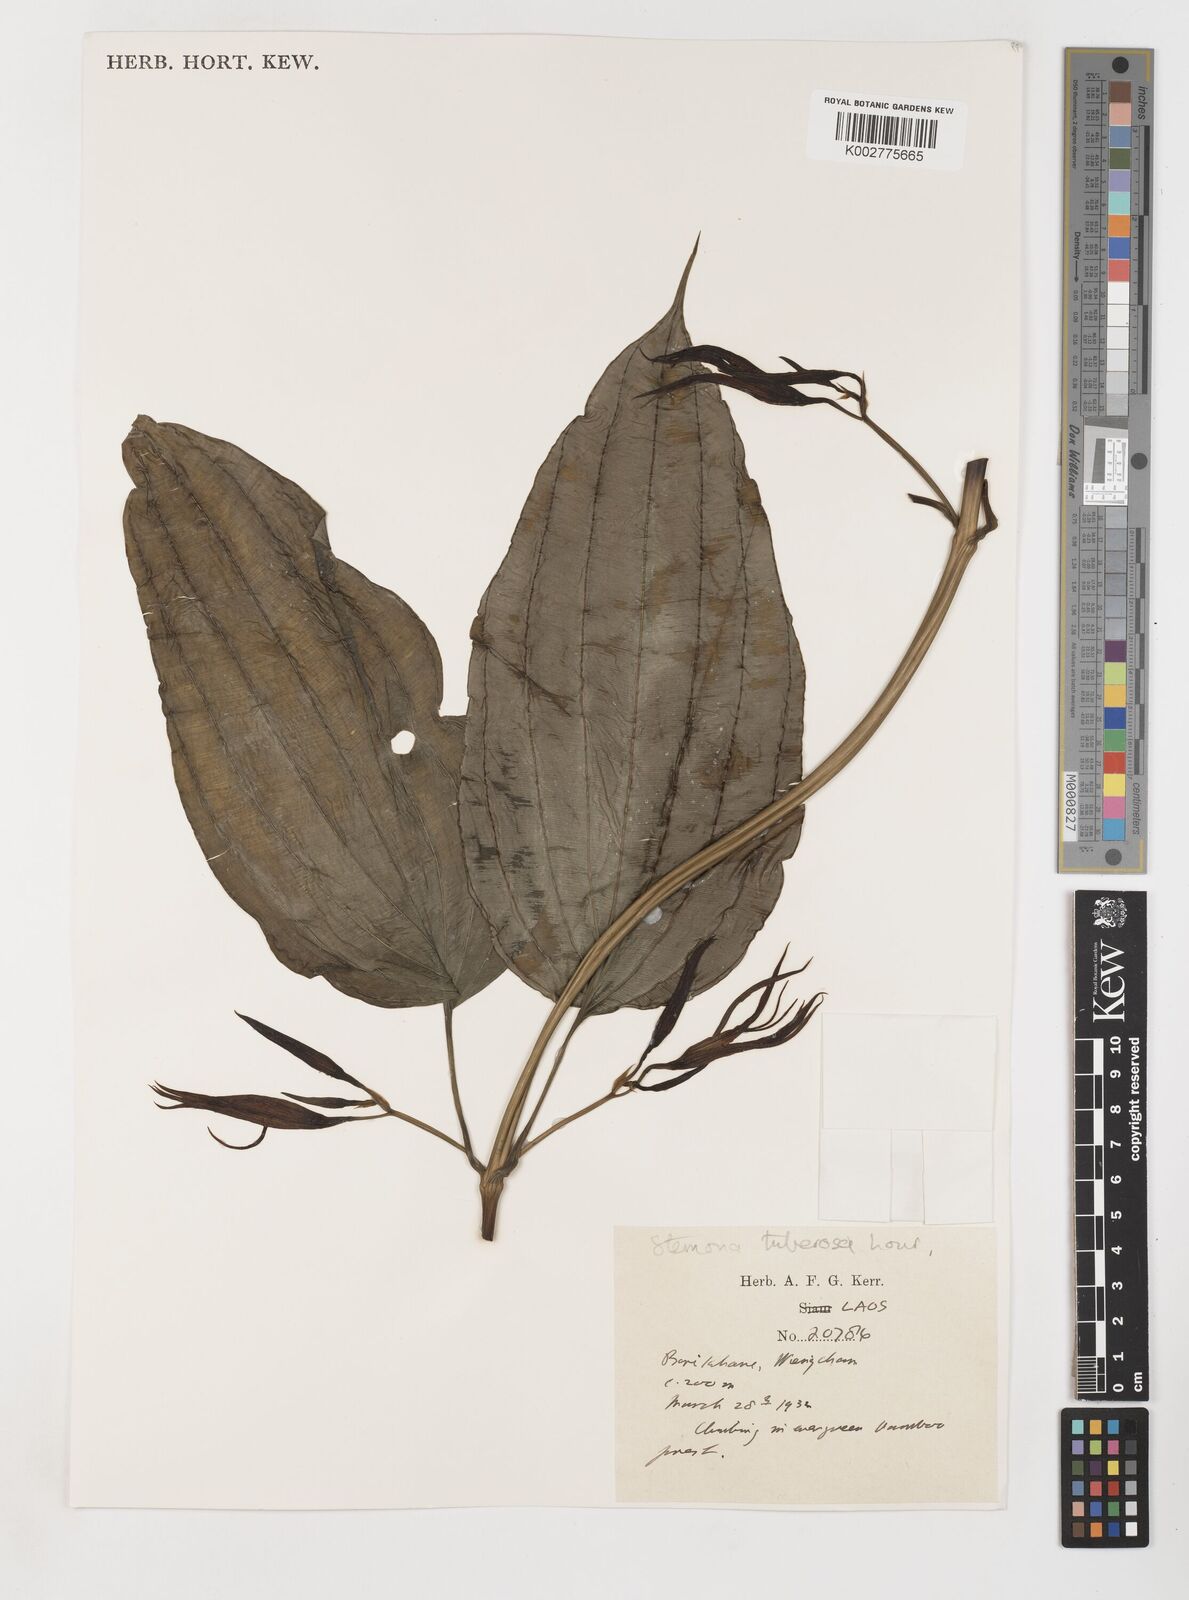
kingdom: Plantae
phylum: Tracheophyta
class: Liliopsida
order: Pandanales
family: Stemonaceae
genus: Stemona
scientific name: Stemona tuberosa
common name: Stemona
